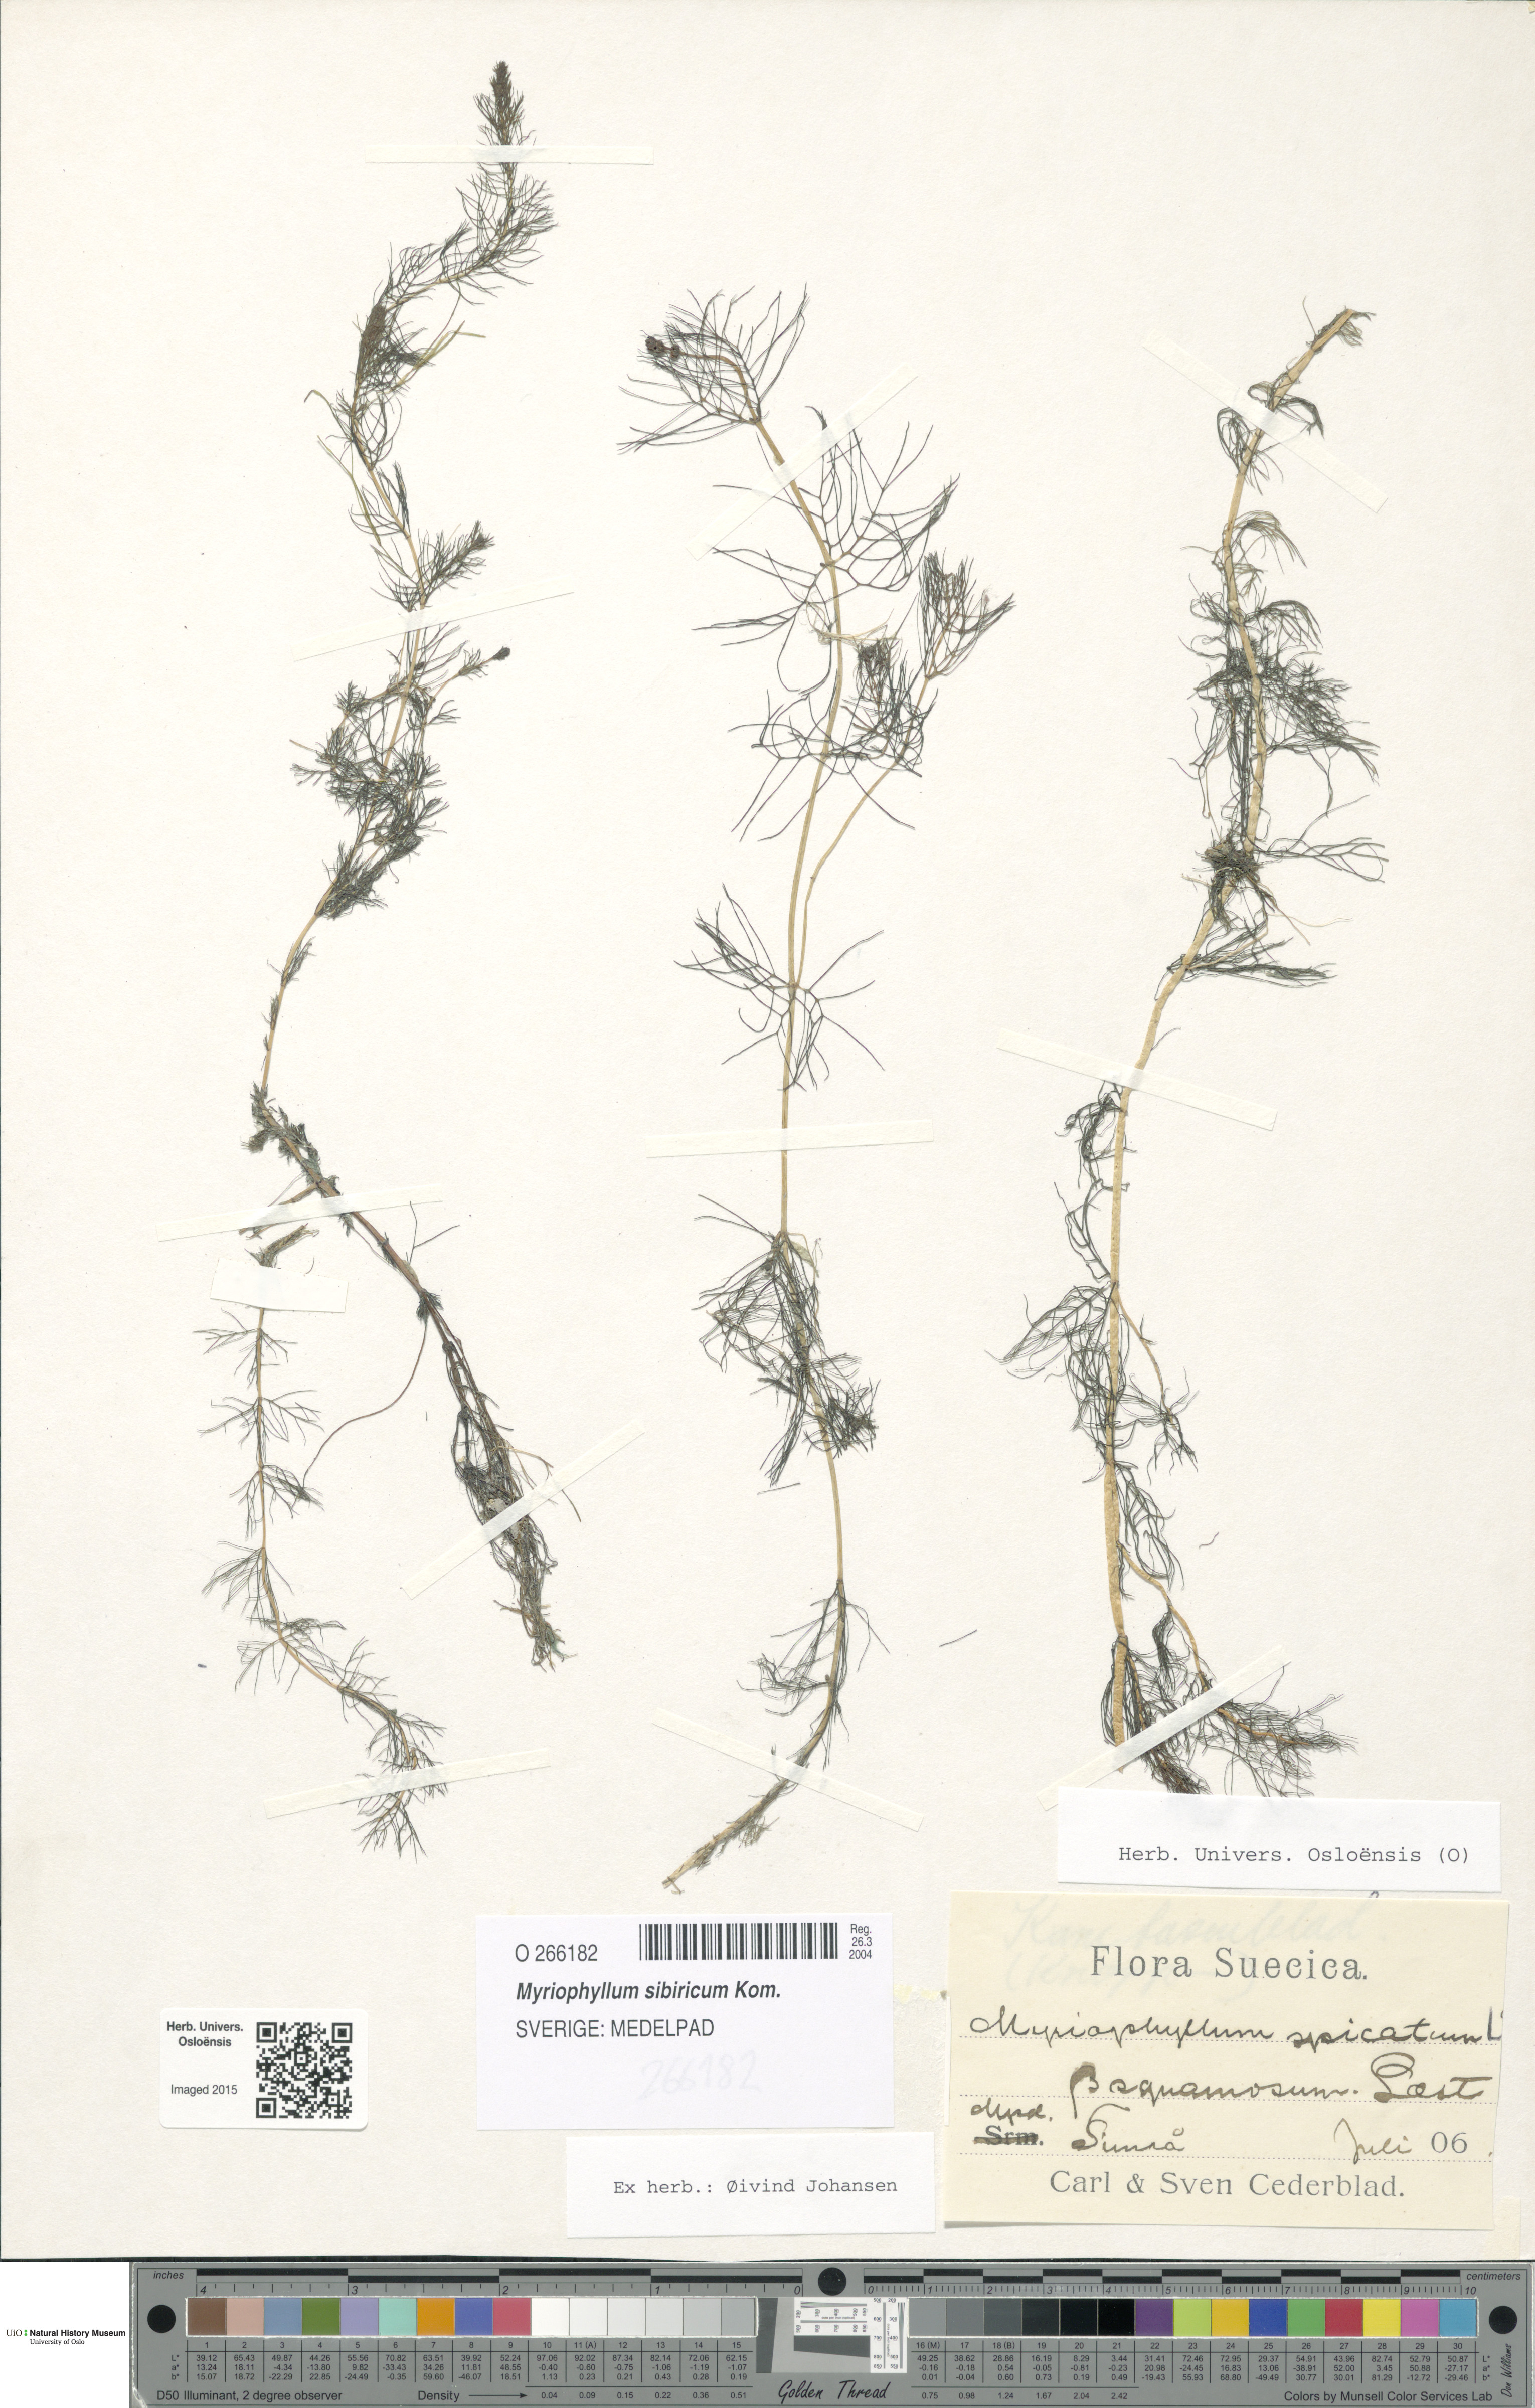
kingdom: Plantae
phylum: Tracheophyta
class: Magnoliopsida
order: Saxifragales
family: Haloragaceae
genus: Myriophyllum
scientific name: Myriophyllum sibiricum
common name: Siberian water-milfoil
